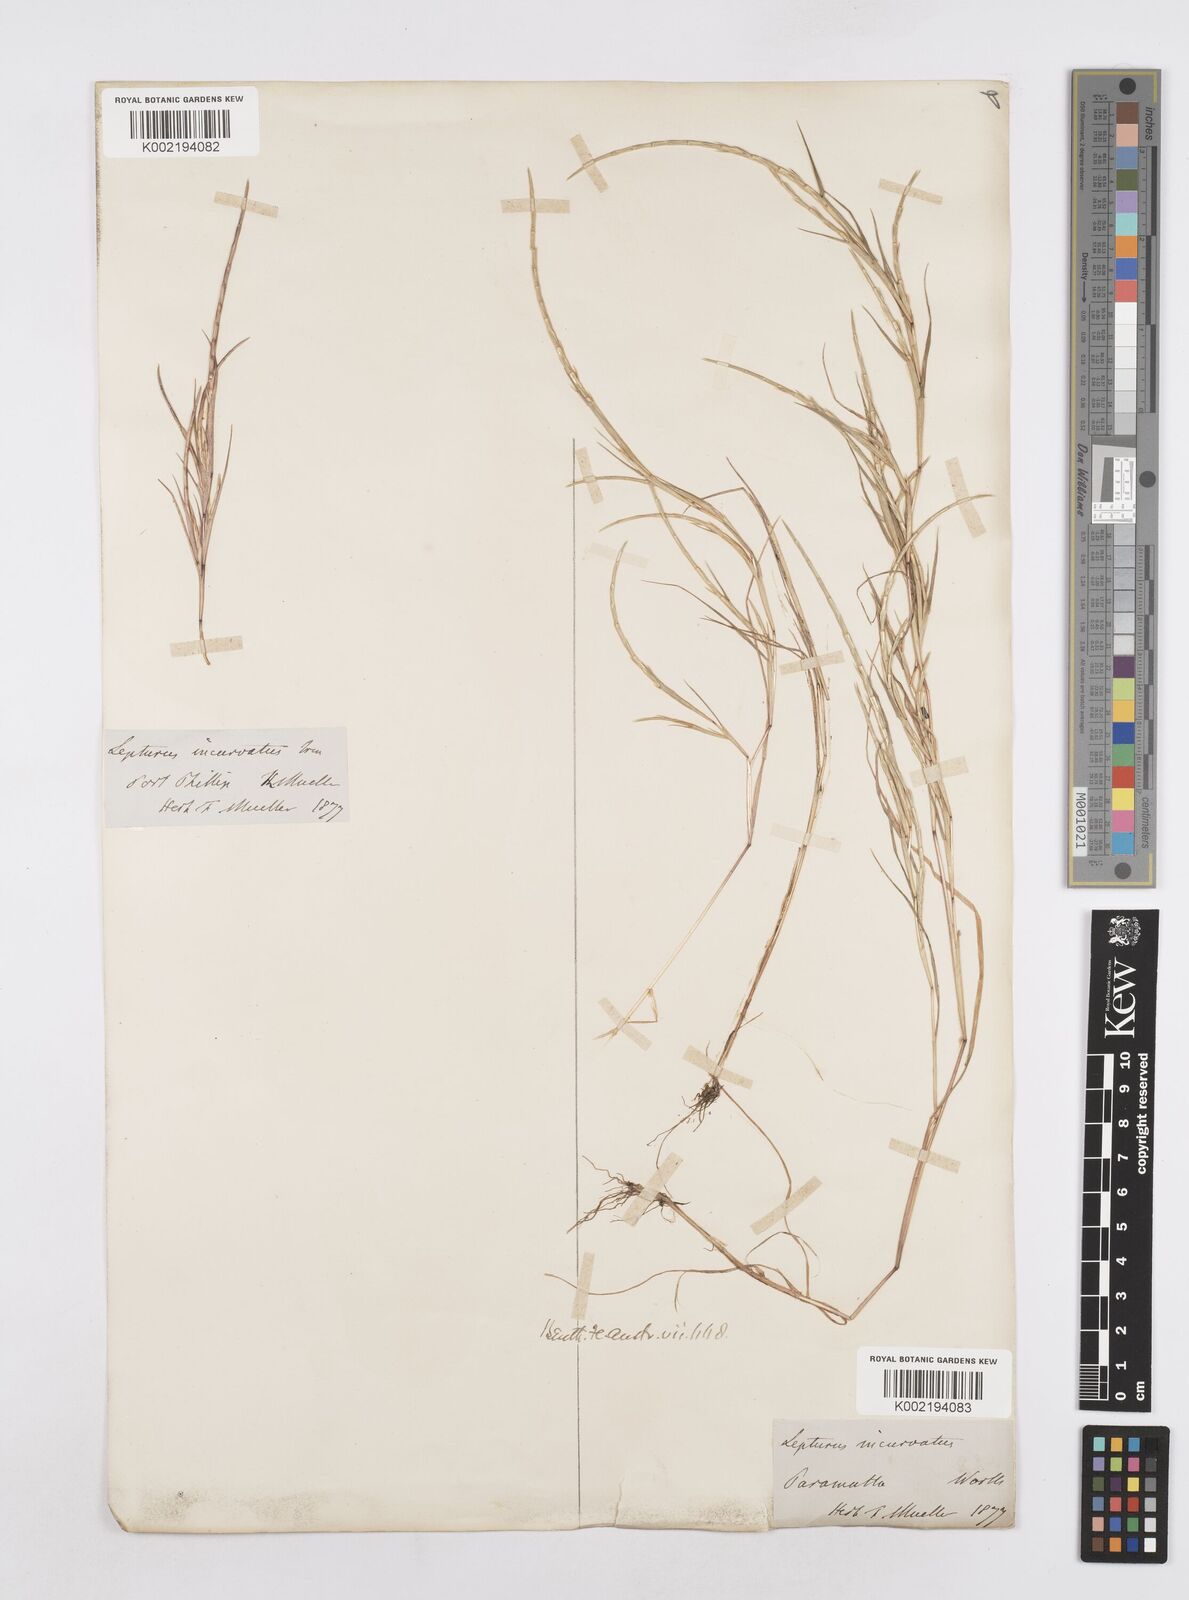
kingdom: Plantae
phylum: Tracheophyta
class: Liliopsida
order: Poales
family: Poaceae
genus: Parapholis
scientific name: Parapholis incurva
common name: Curved sicklegrass
